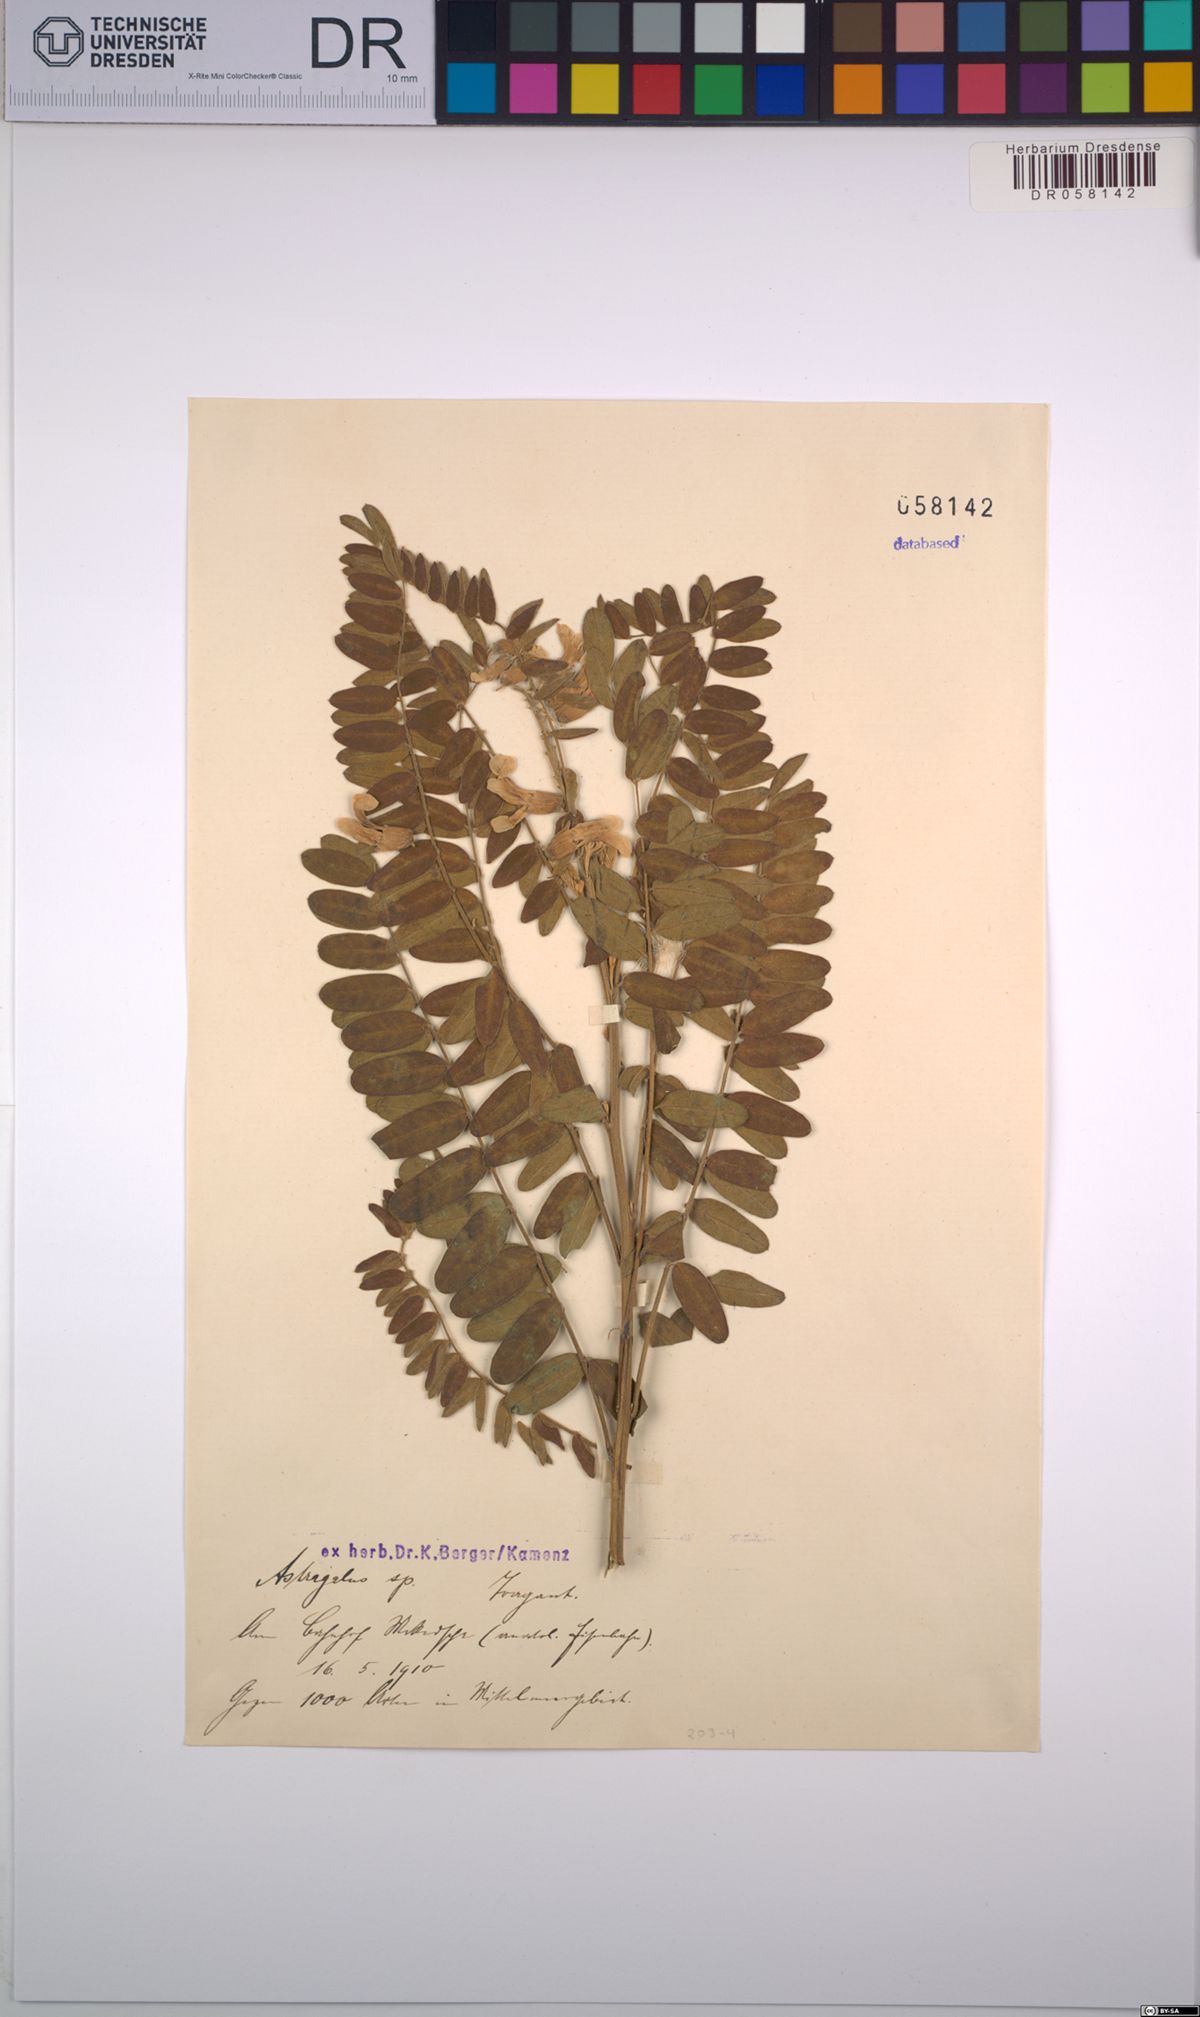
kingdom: Plantae
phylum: Tracheophyta
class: Magnoliopsida
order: Fabales
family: Fabaceae
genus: Astragalus
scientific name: Astragalus
